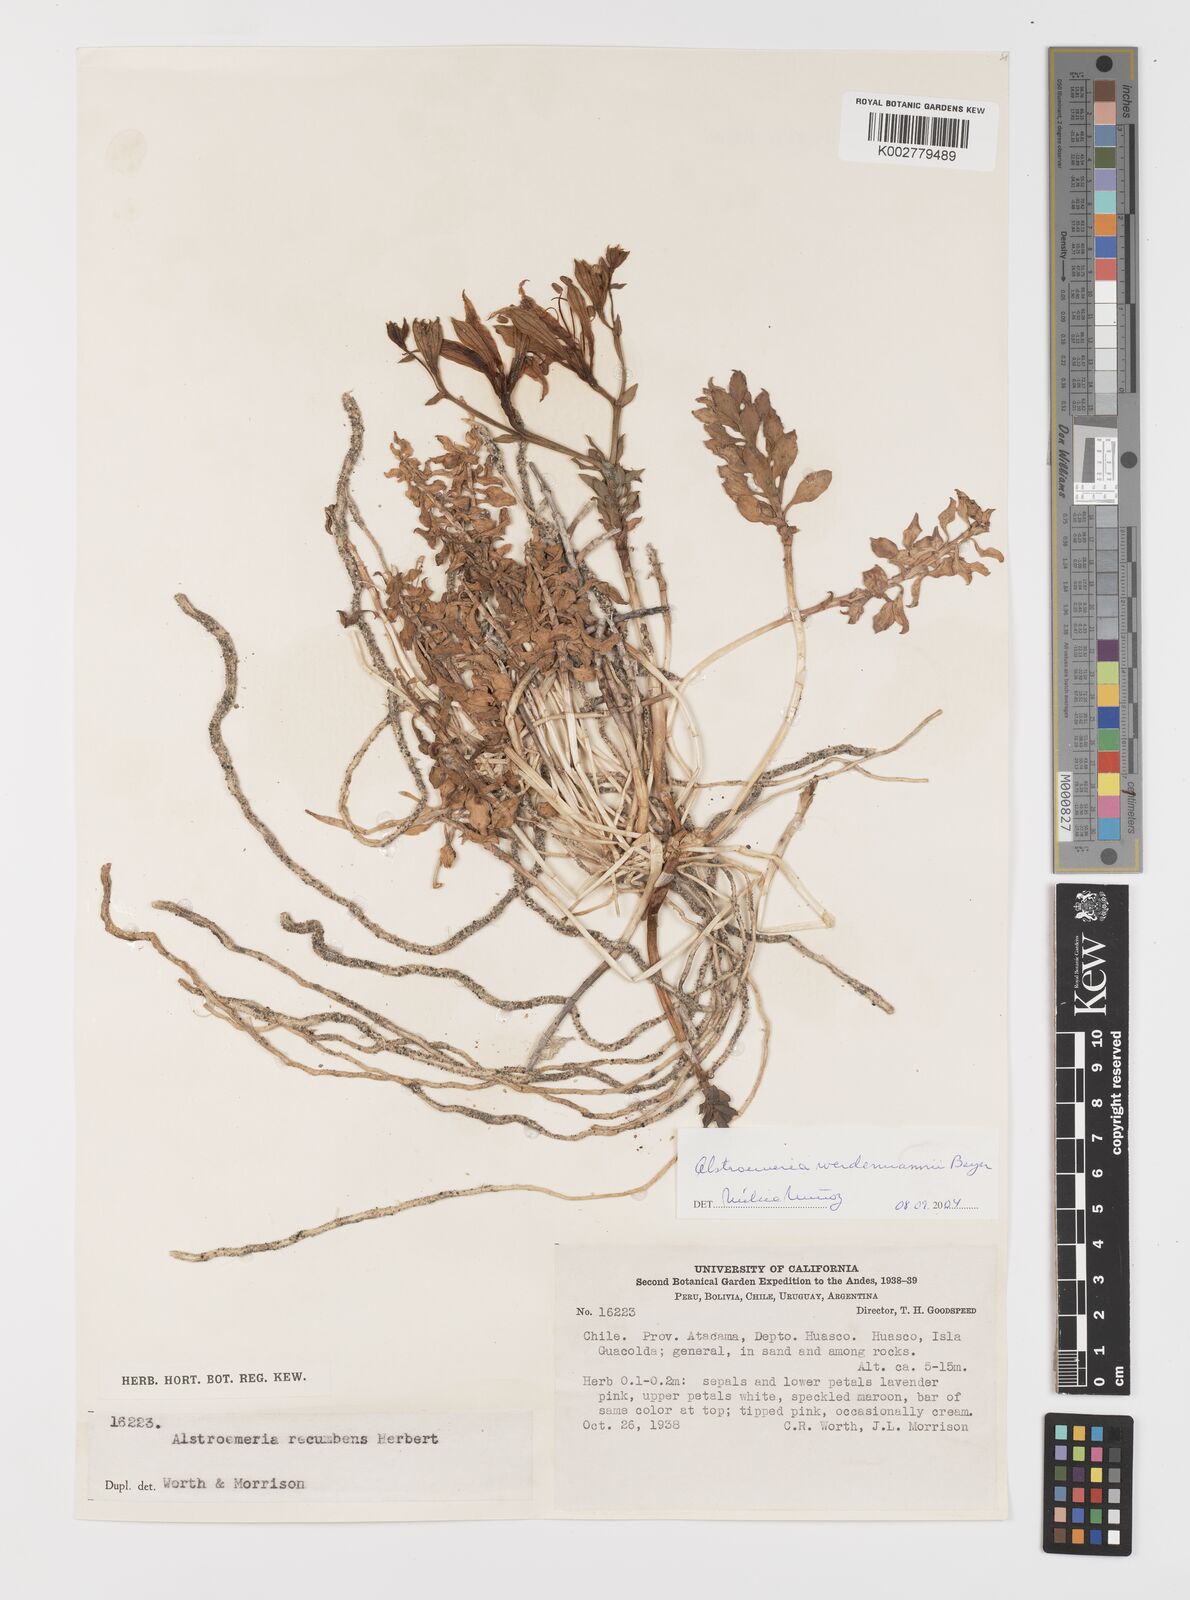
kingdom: Plantae
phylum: Tracheophyta
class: Liliopsida
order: Liliales
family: Alstroemeriaceae
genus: Alstroemeria
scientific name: Alstroemeria werdermannii
